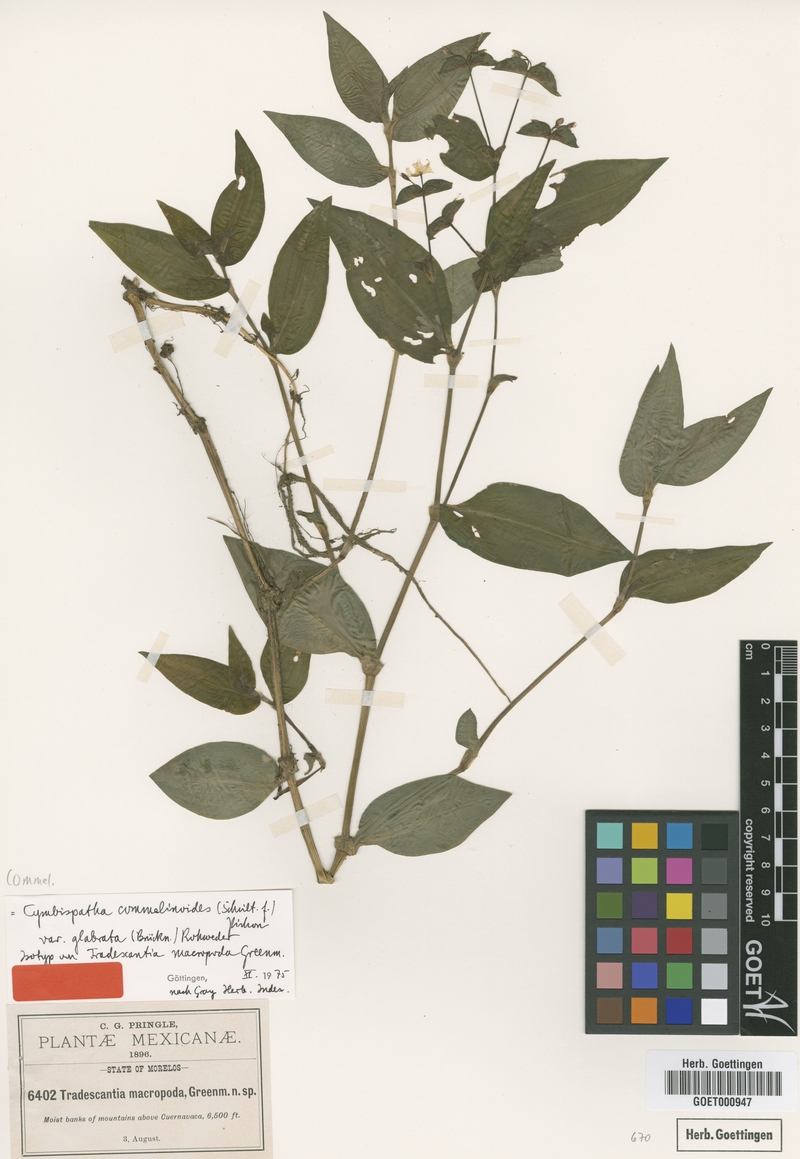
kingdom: Plantae
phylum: Tracheophyta
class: Liliopsida
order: Commelinales
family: Commelinaceae
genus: Tradescantia
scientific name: Tradescantia commelinoides
